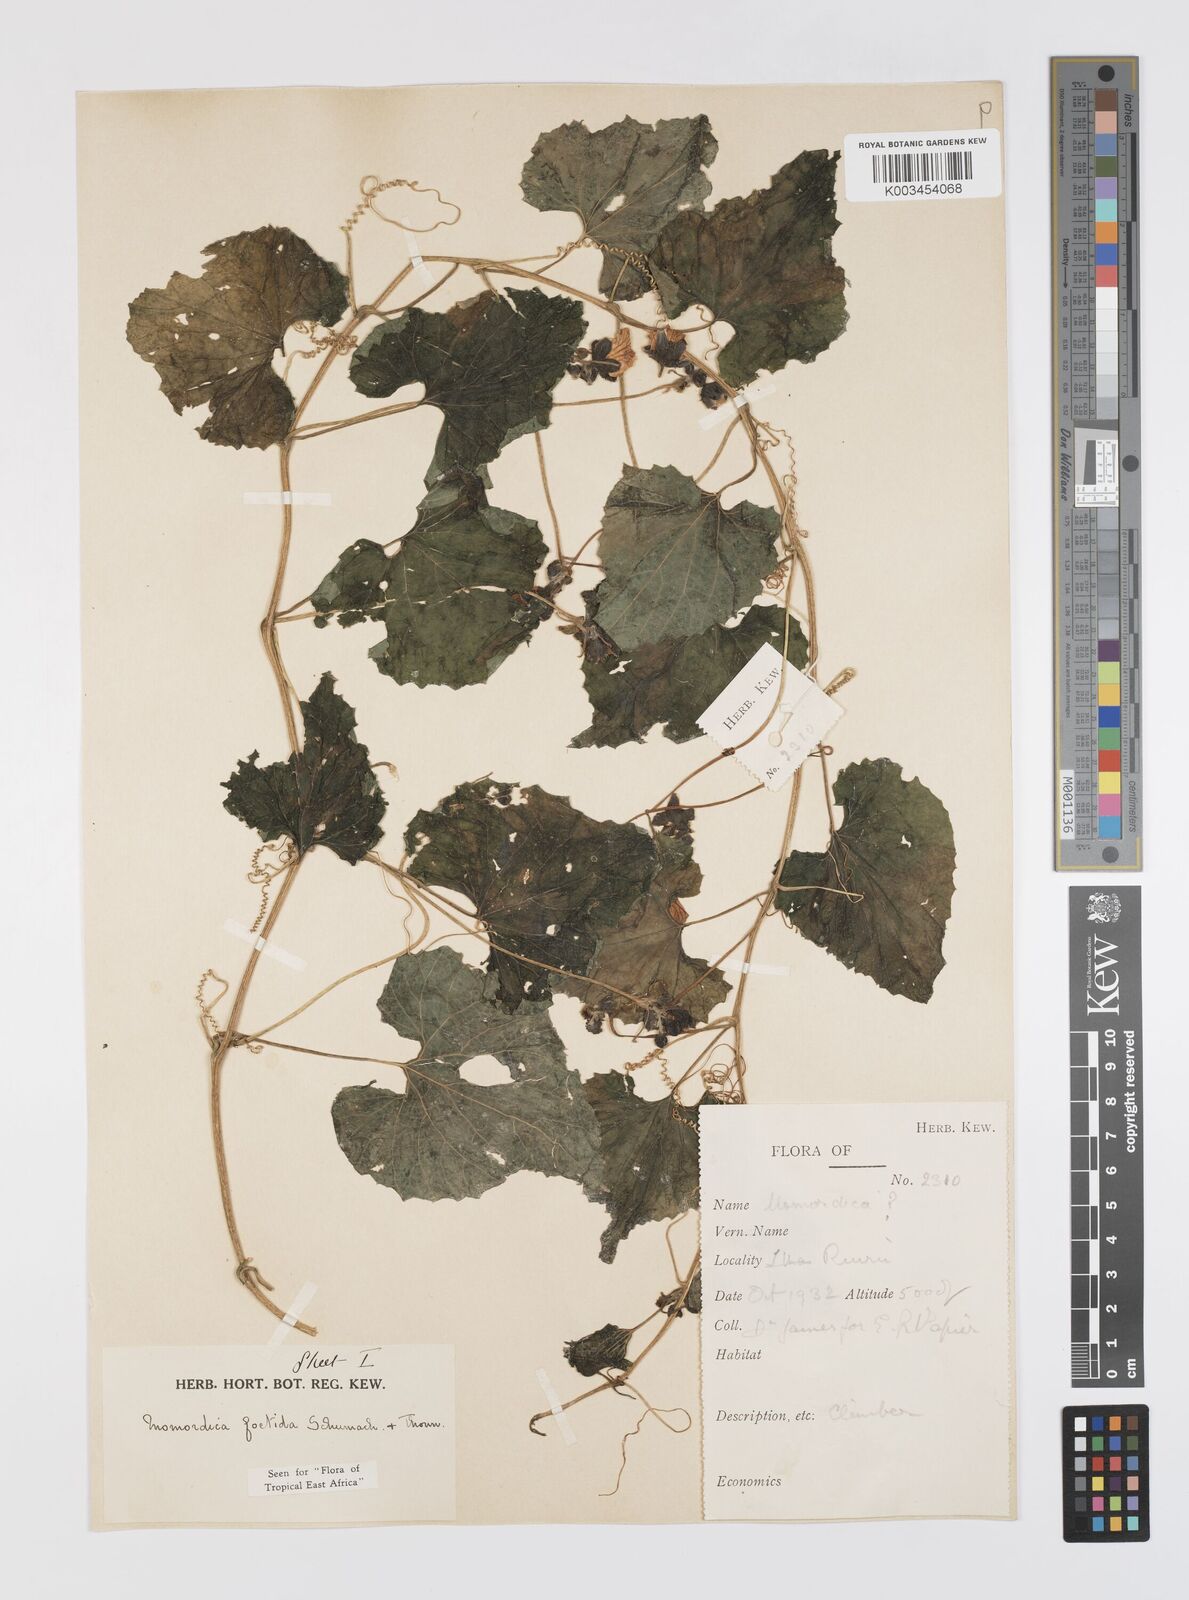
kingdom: Plantae
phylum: Tracheophyta
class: Magnoliopsida
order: Cucurbitales
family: Cucurbitaceae
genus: Momordica
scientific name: Momordica foetida
